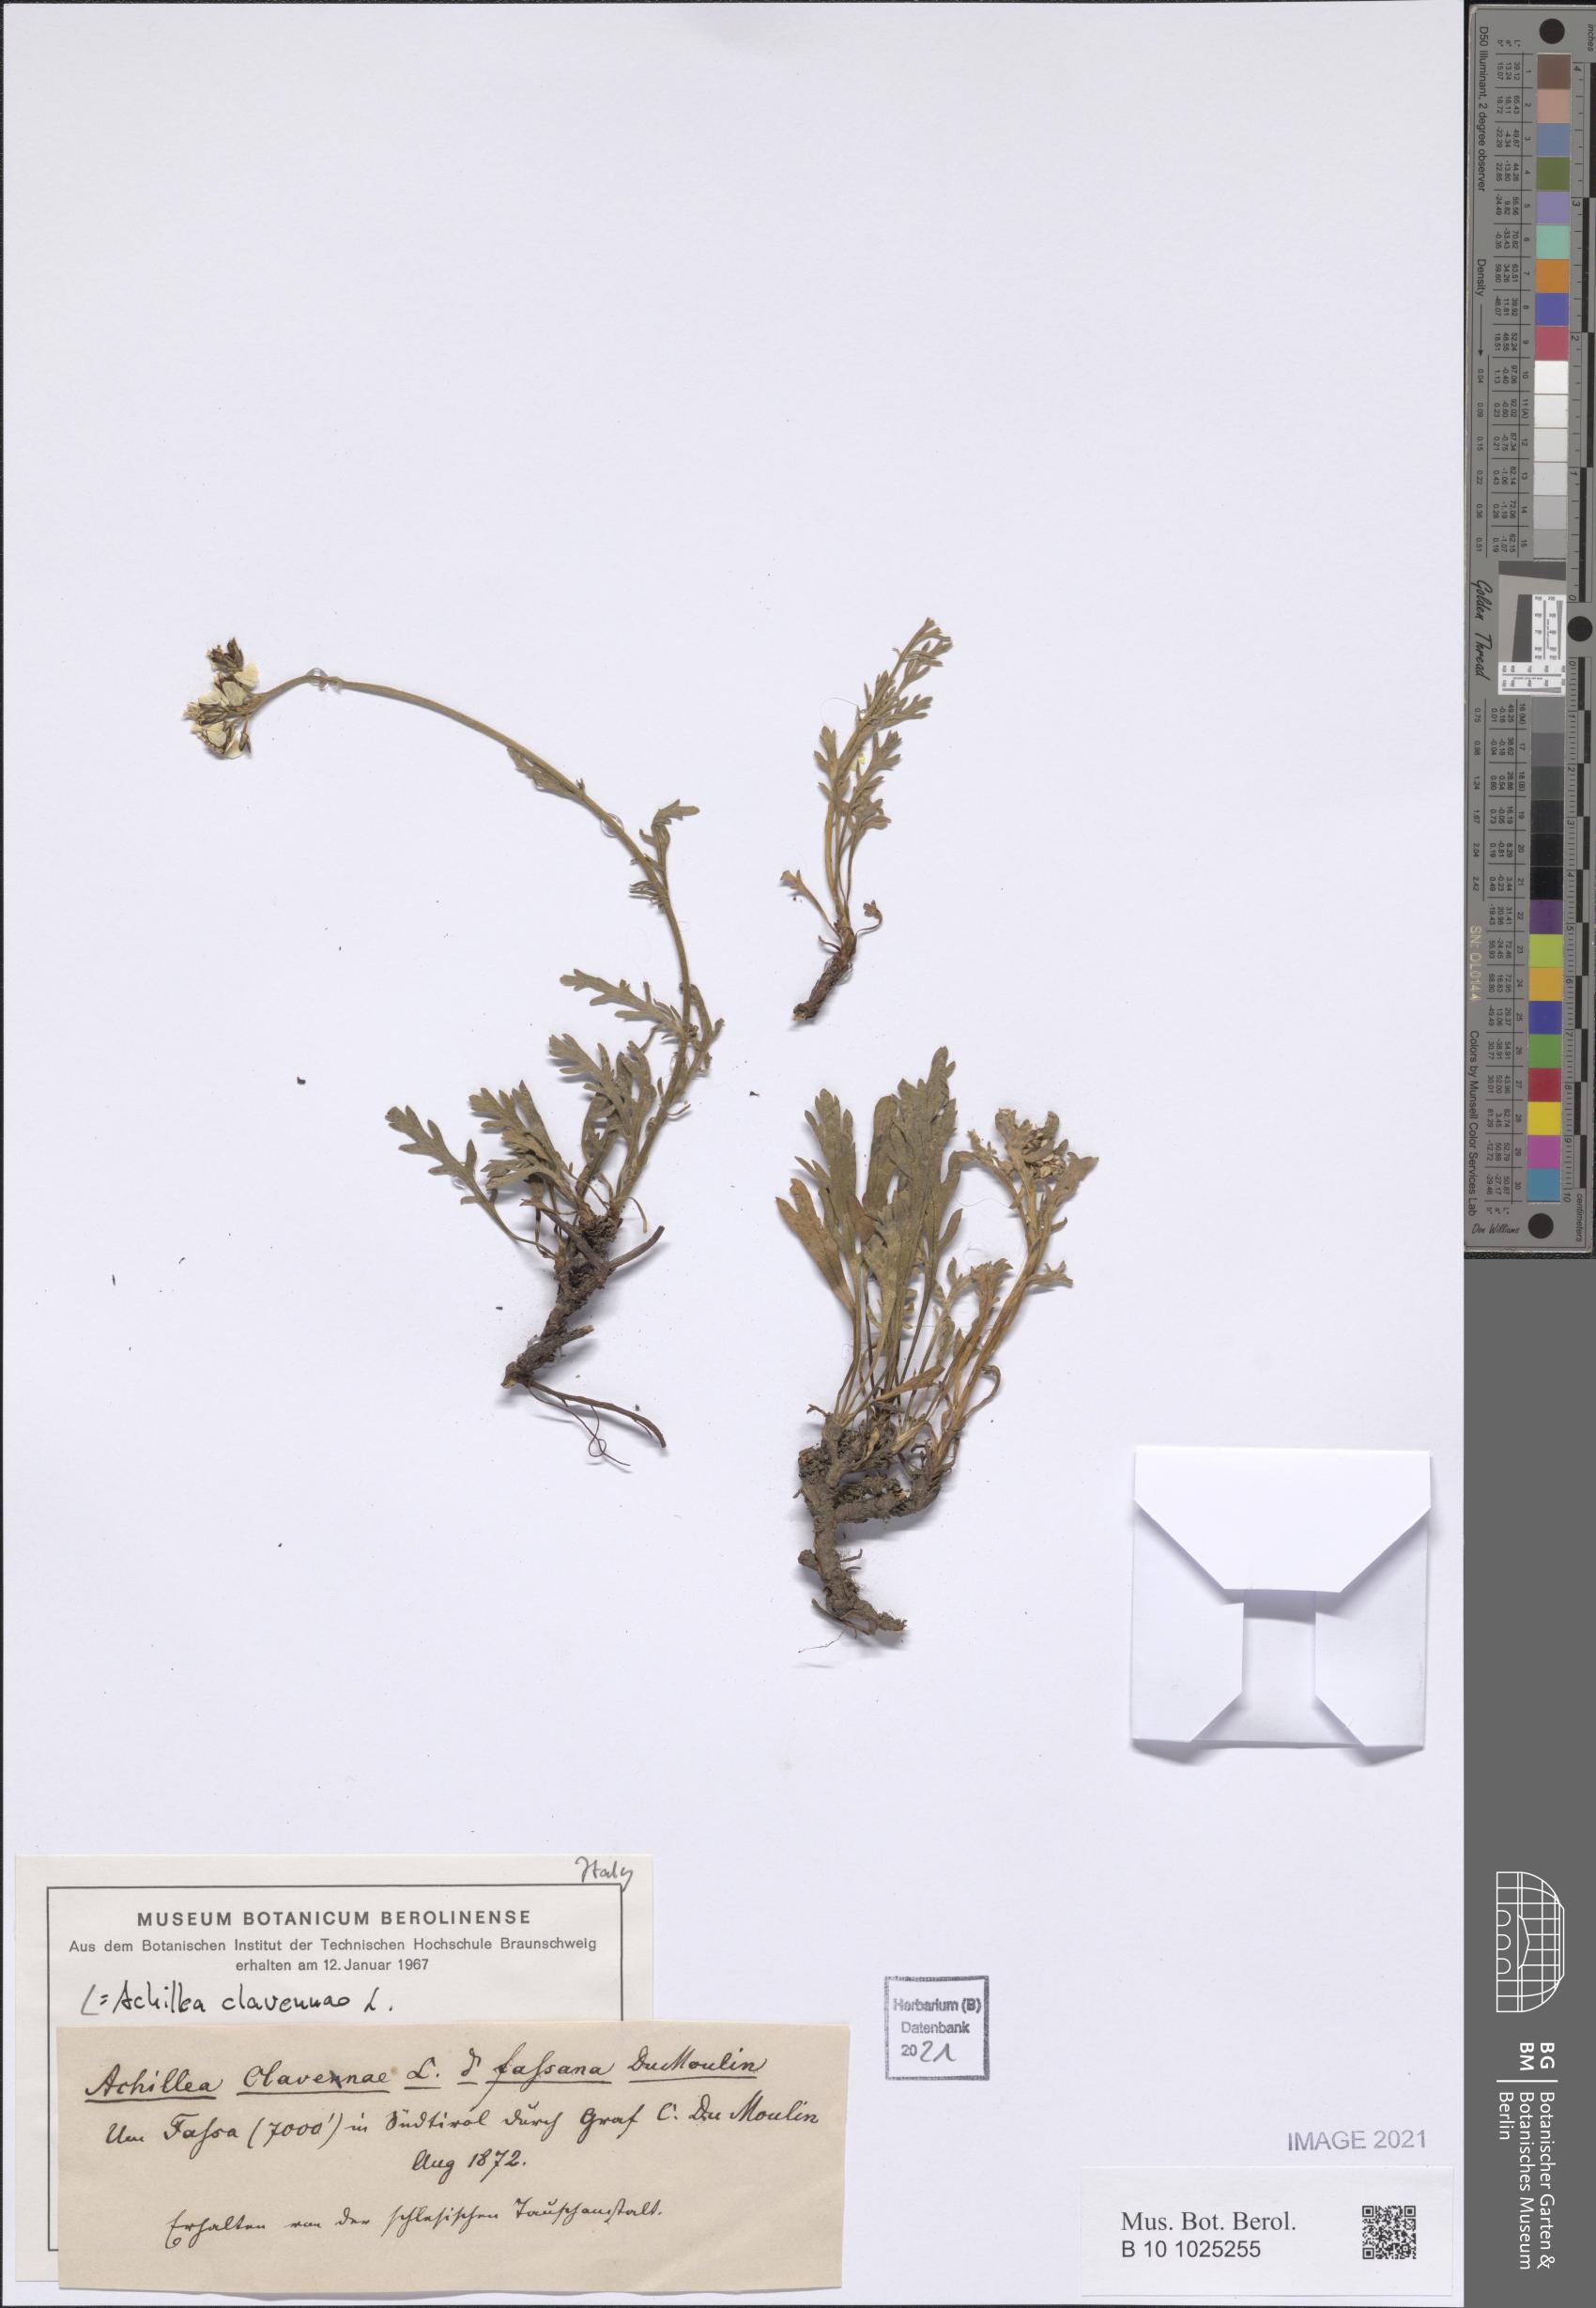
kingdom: Plantae
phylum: Tracheophyta
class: Magnoliopsida
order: Asterales
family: Asteraceae
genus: Achillea
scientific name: Achillea clavennae
